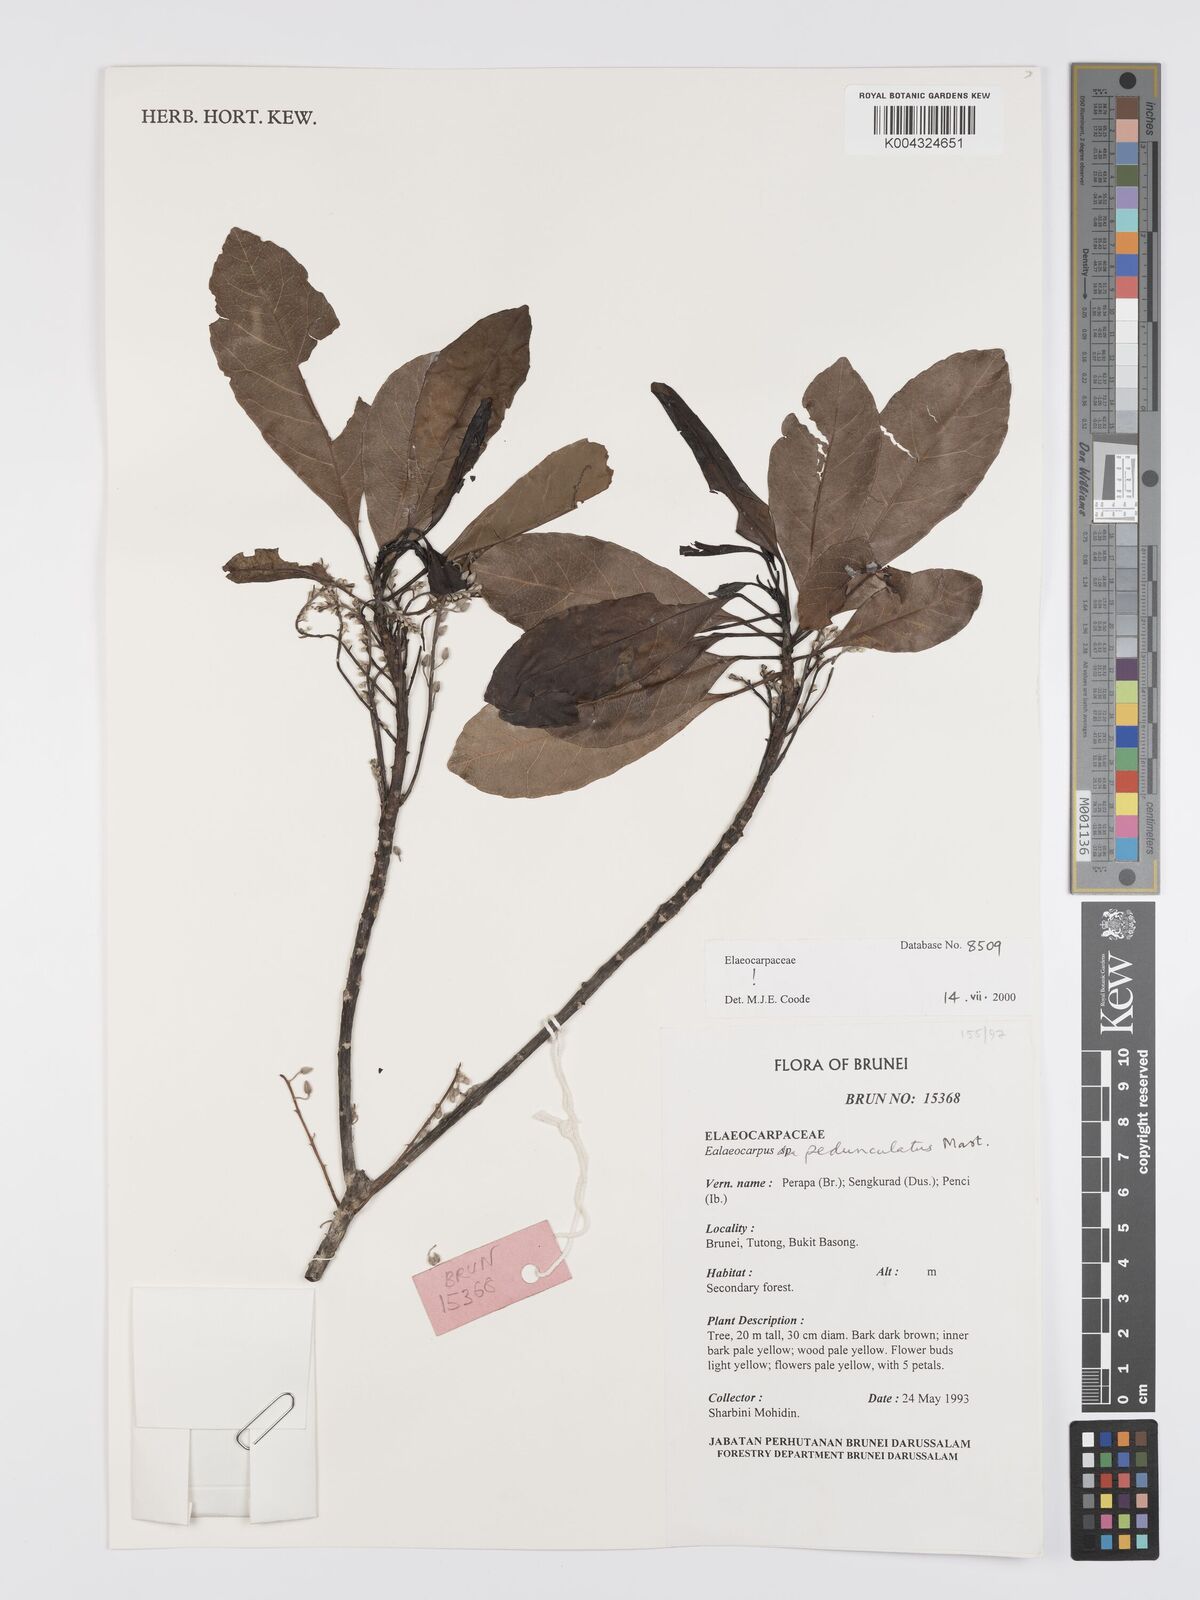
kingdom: Plantae
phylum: Tracheophyta
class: Magnoliopsida
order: Oxalidales
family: Elaeocarpaceae
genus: Elaeocarpus
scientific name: Elaeocarpus pedunculatus
